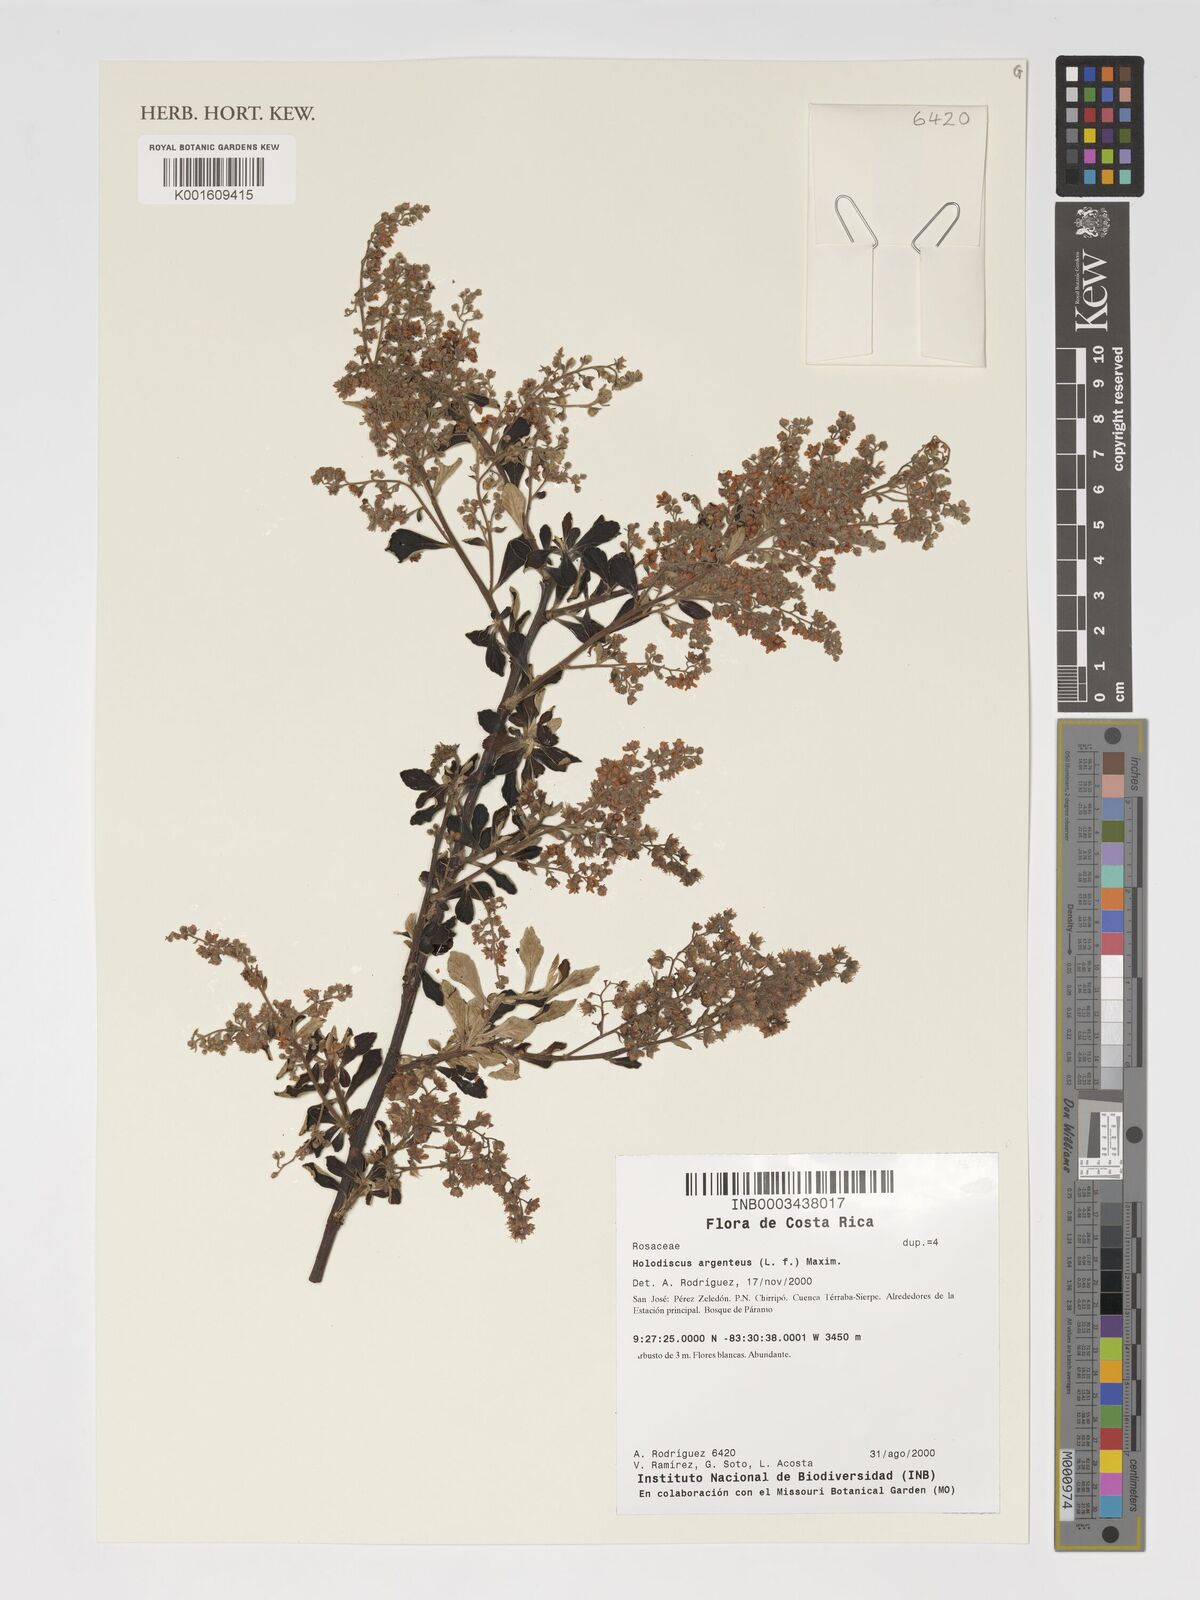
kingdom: Plantae
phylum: Tracheophyta
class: Magnoliopsida
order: Rosales
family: Rosaceae
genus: Holodiscus
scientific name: Holodiscus argenteus
